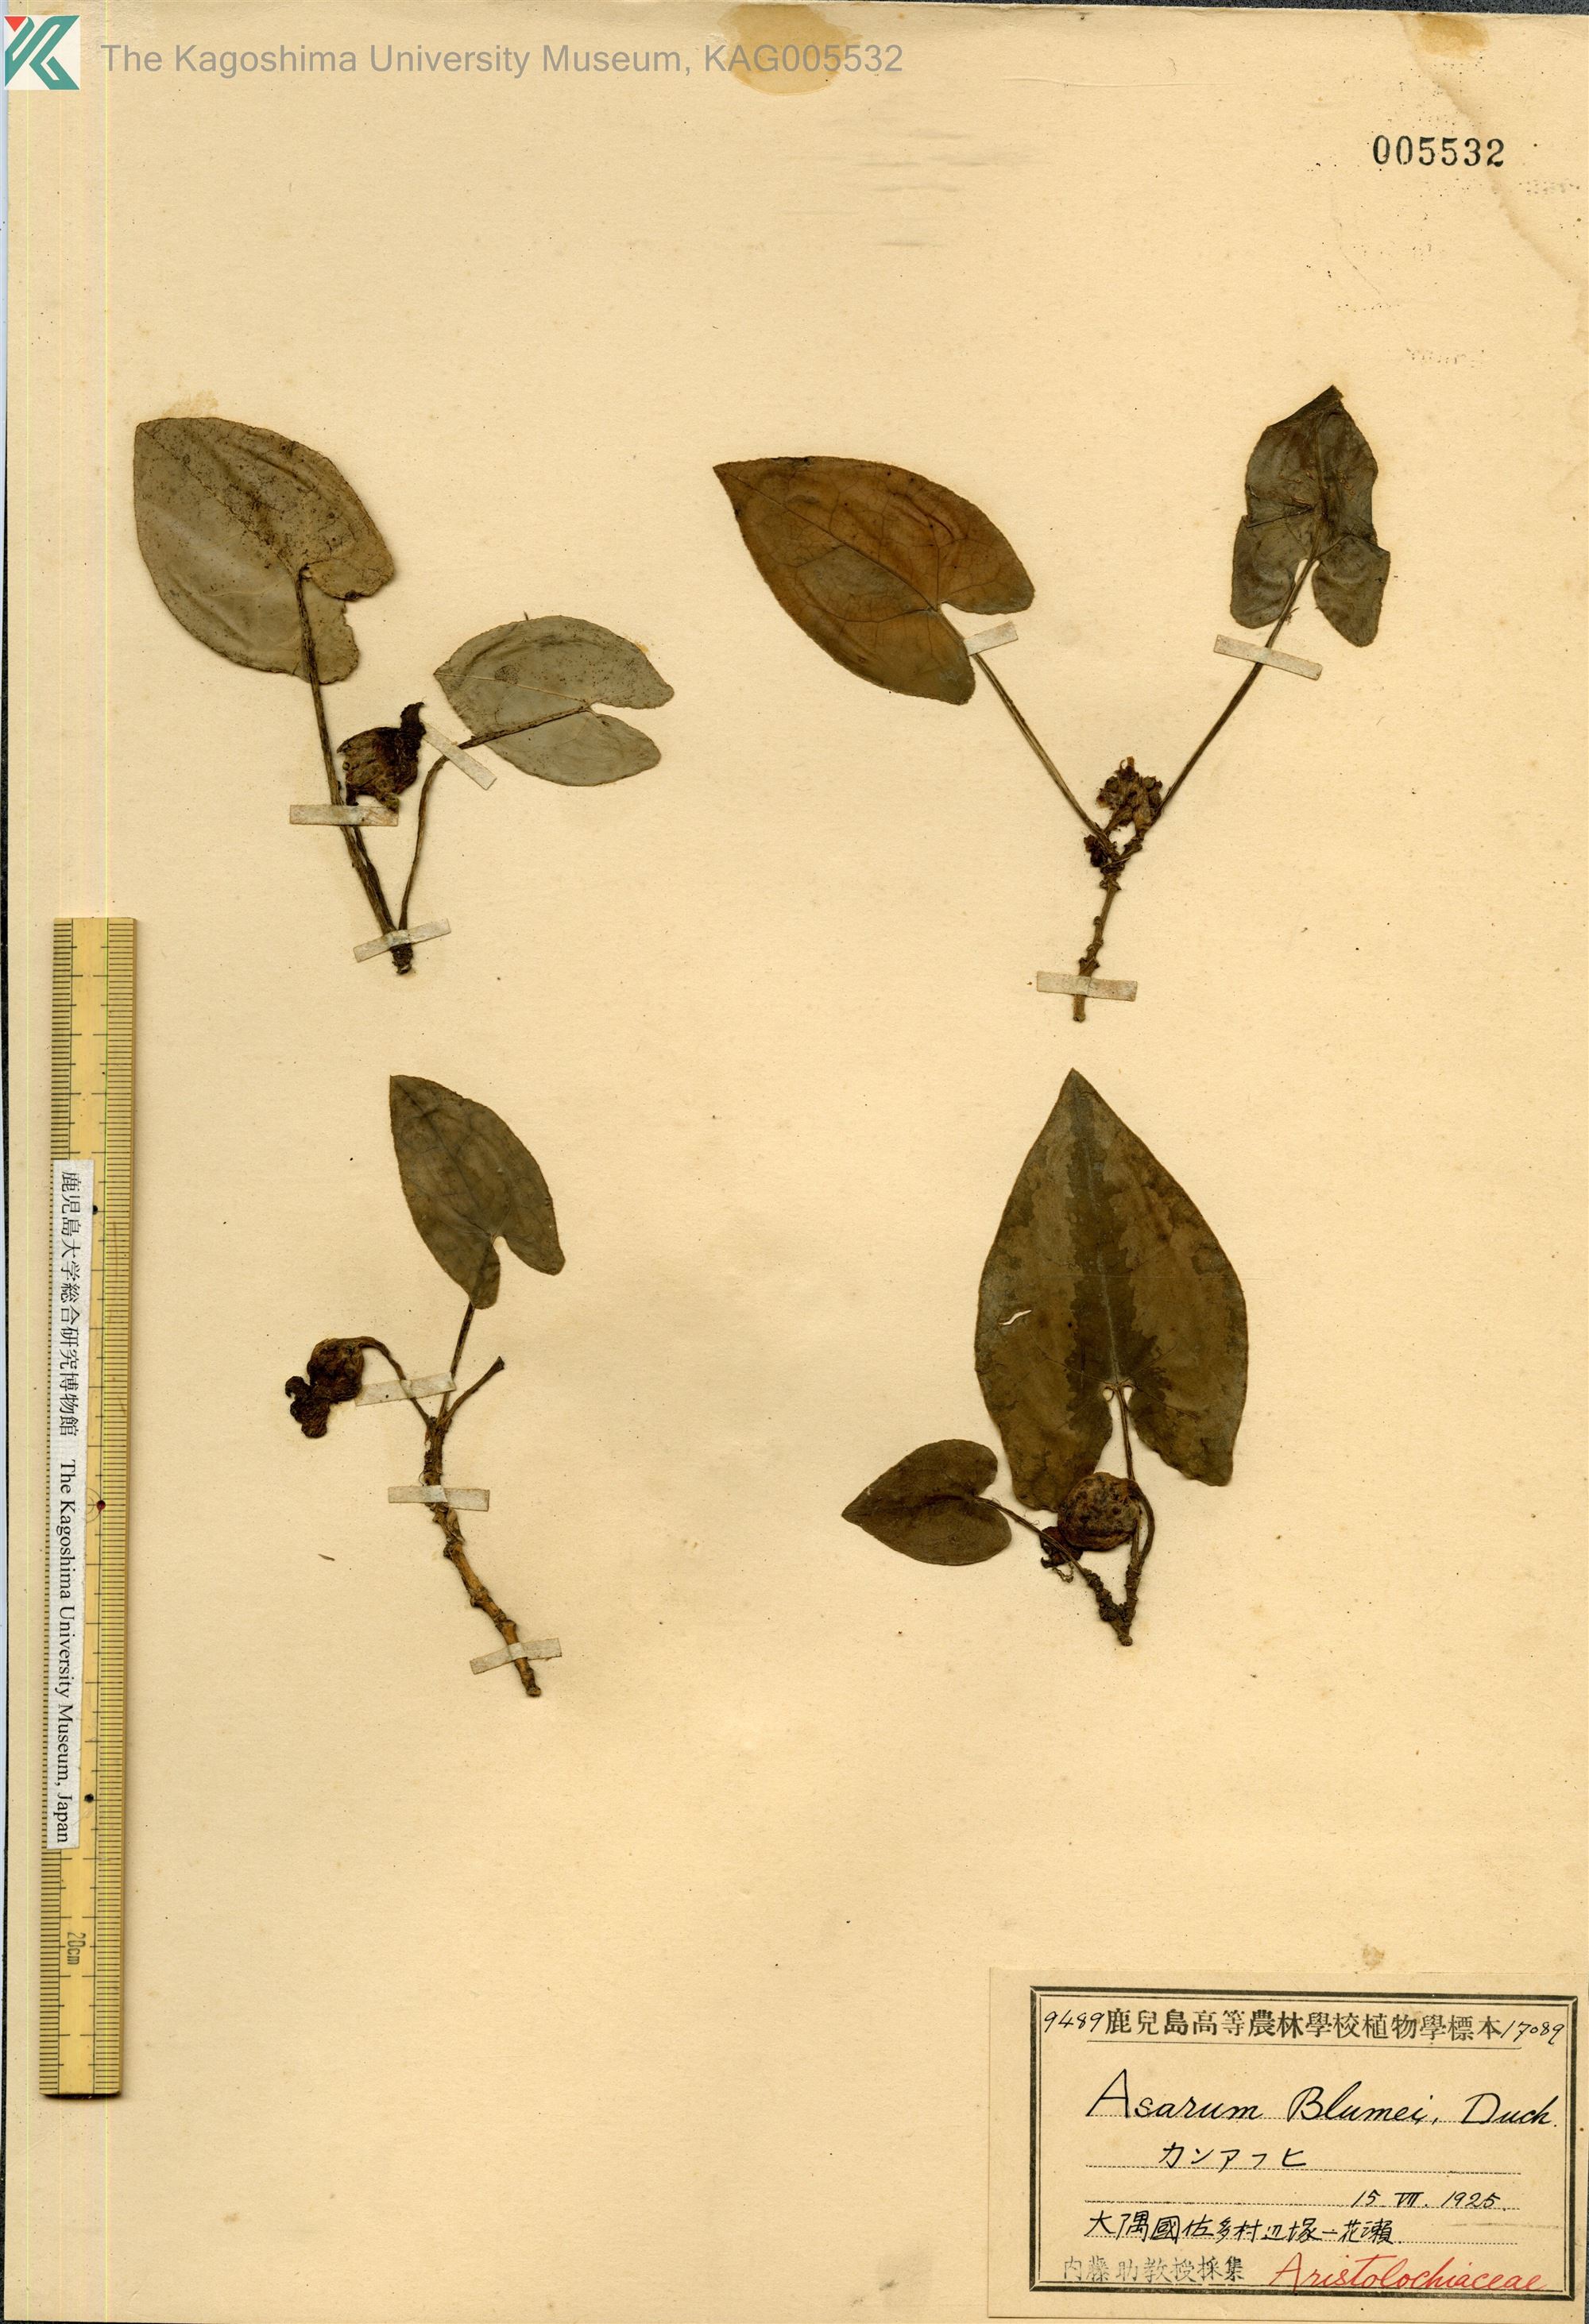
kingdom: Plantae
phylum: Tracheophyta
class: Magnoliopsida
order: Piperales
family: Aristolochiaceae
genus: Asarum
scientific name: Asarum hexalobum
